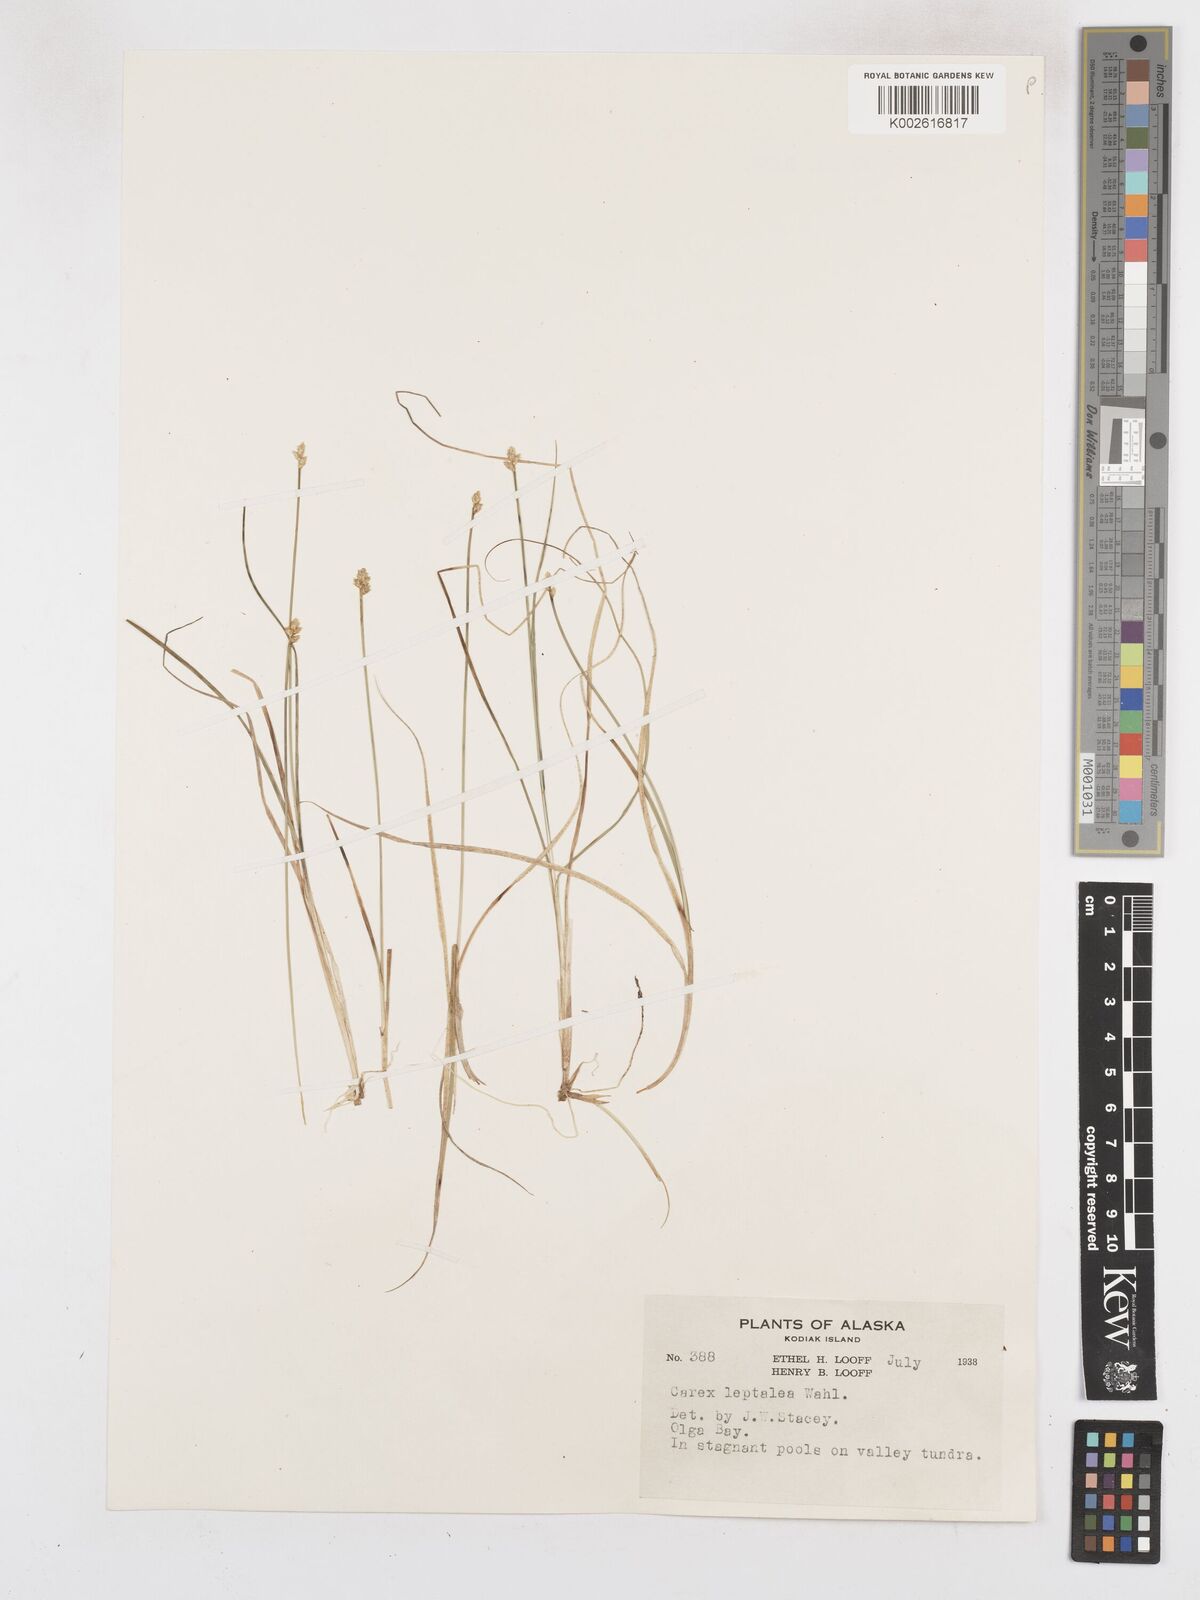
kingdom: Plantae
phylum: Tracheophyta
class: Liliopsida
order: Poales
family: Cyperaceae
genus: Carex
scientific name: Carex leptalea
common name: Bristly-stalked sedge
